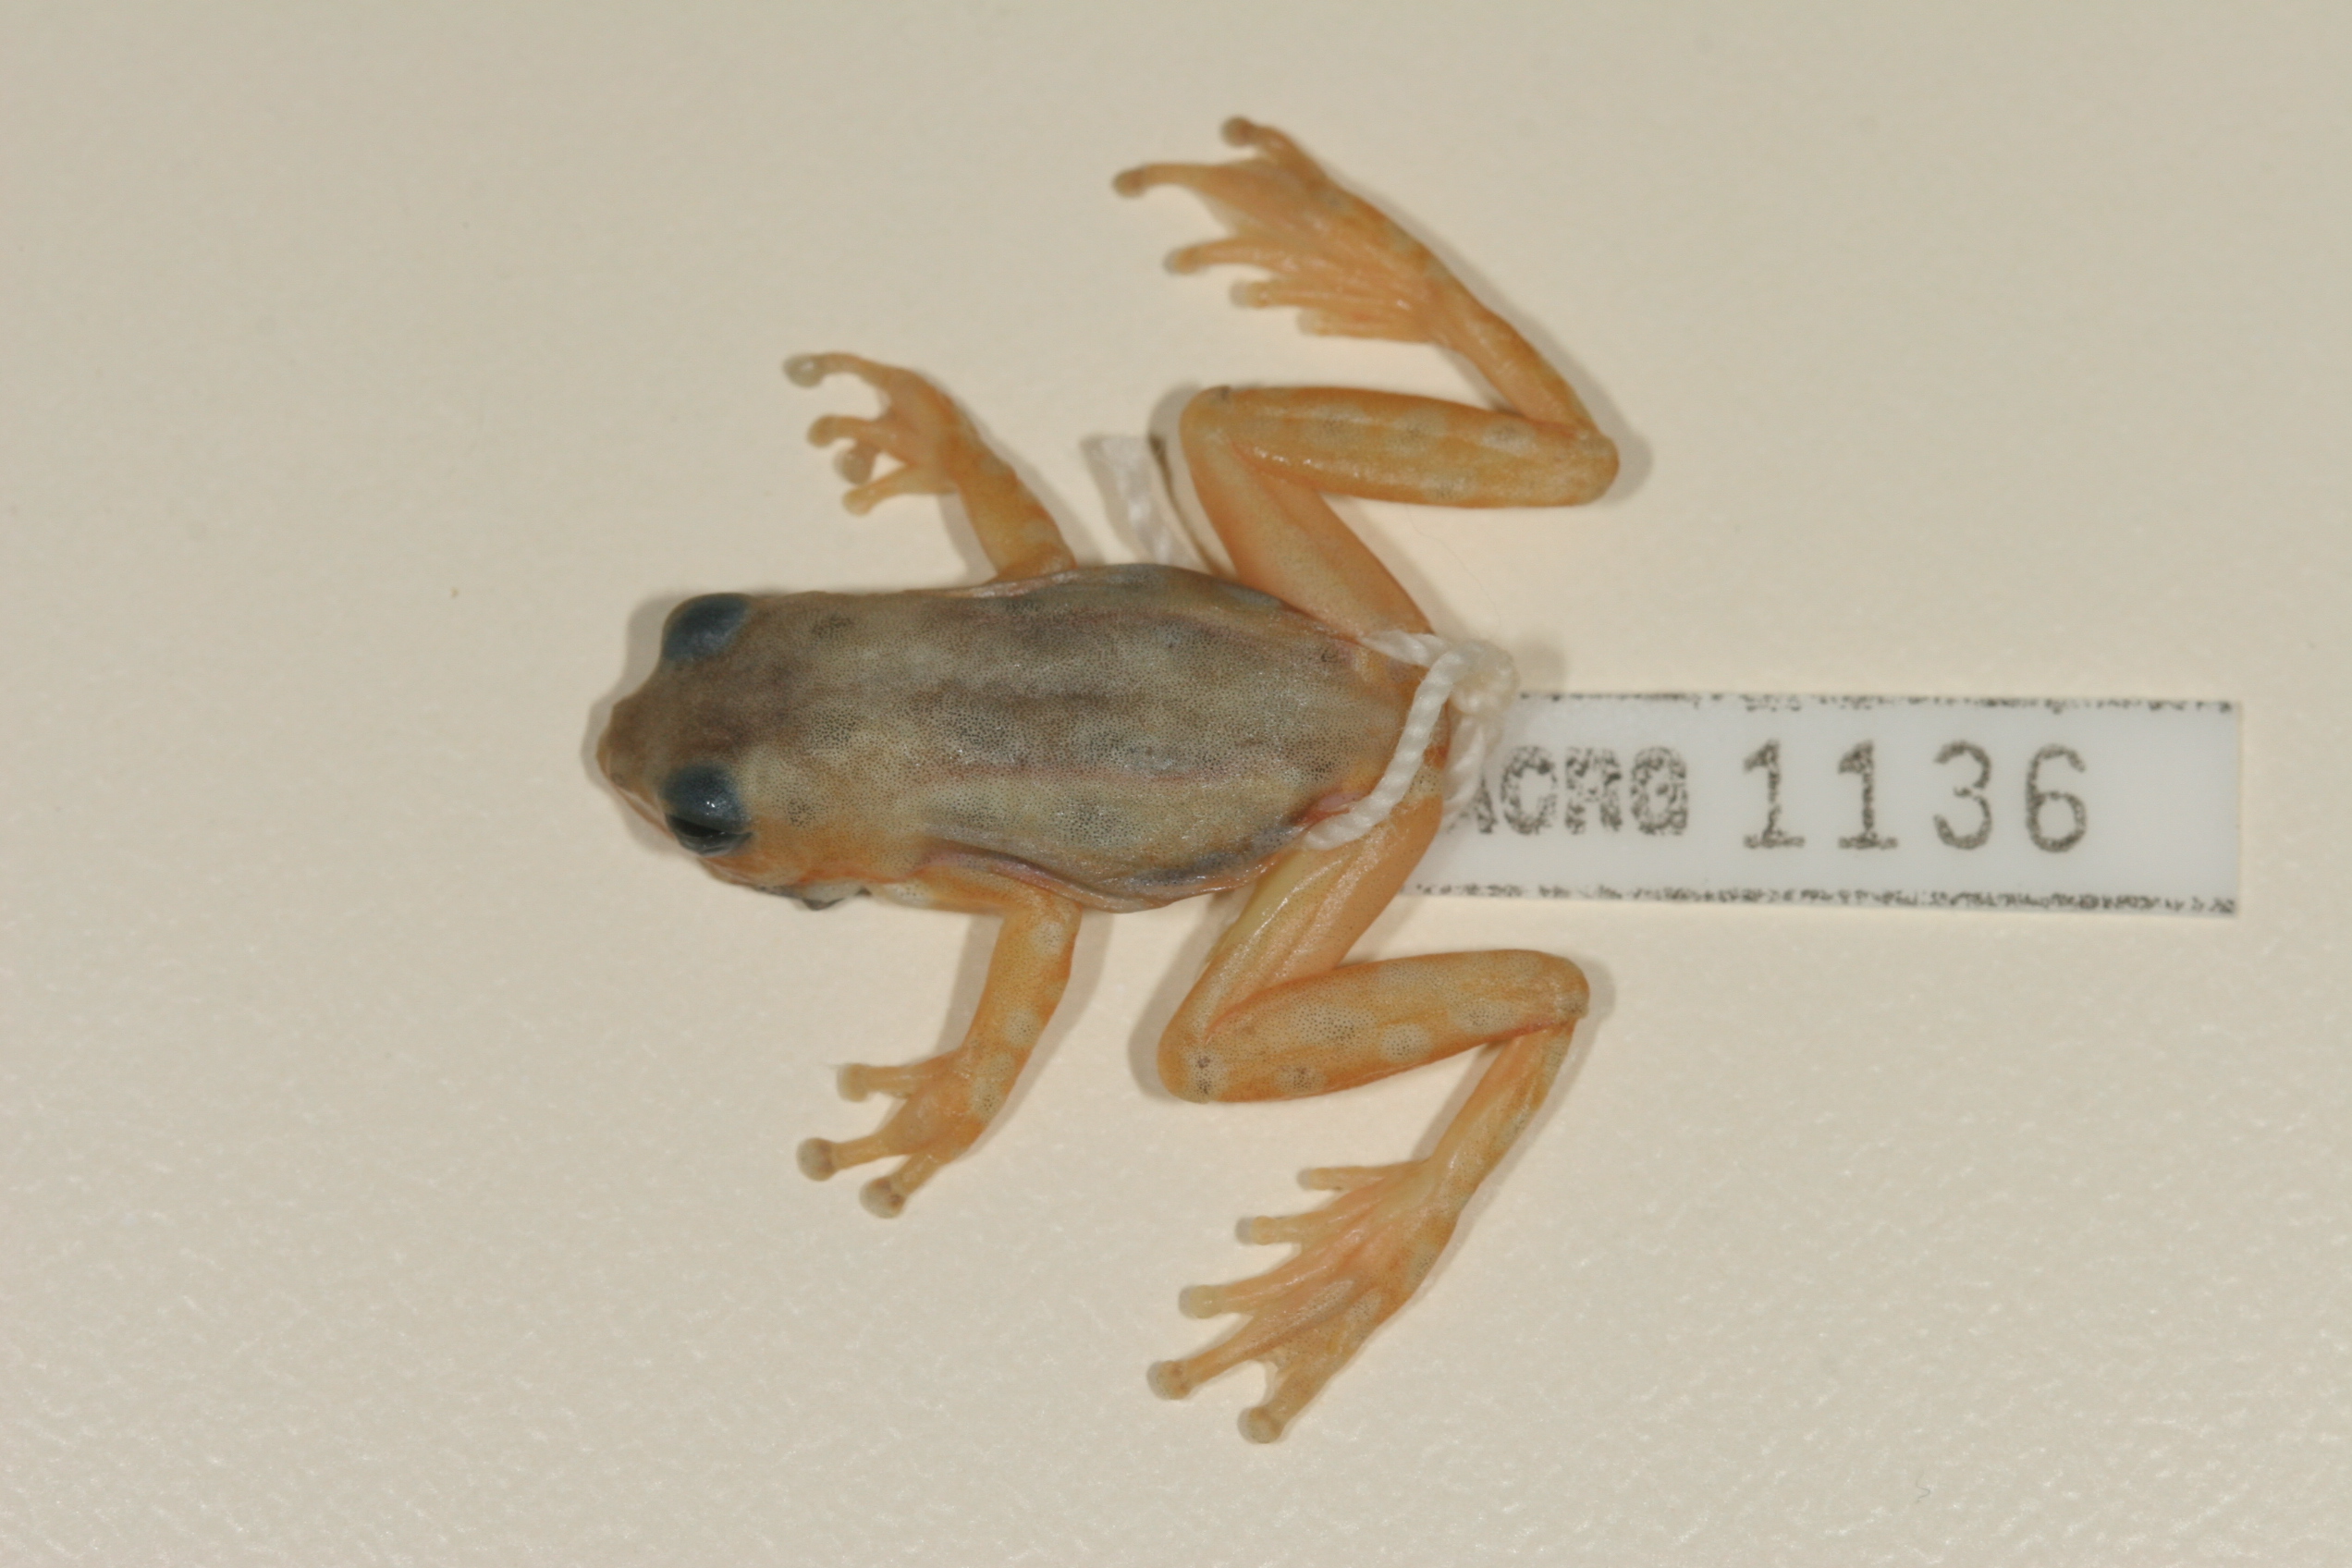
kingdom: Animalia
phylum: Chordata
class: Amphibia
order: Anura
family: Hyperoliidae
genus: Hyperolius
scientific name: Hyperolius pyrrhodictyon
